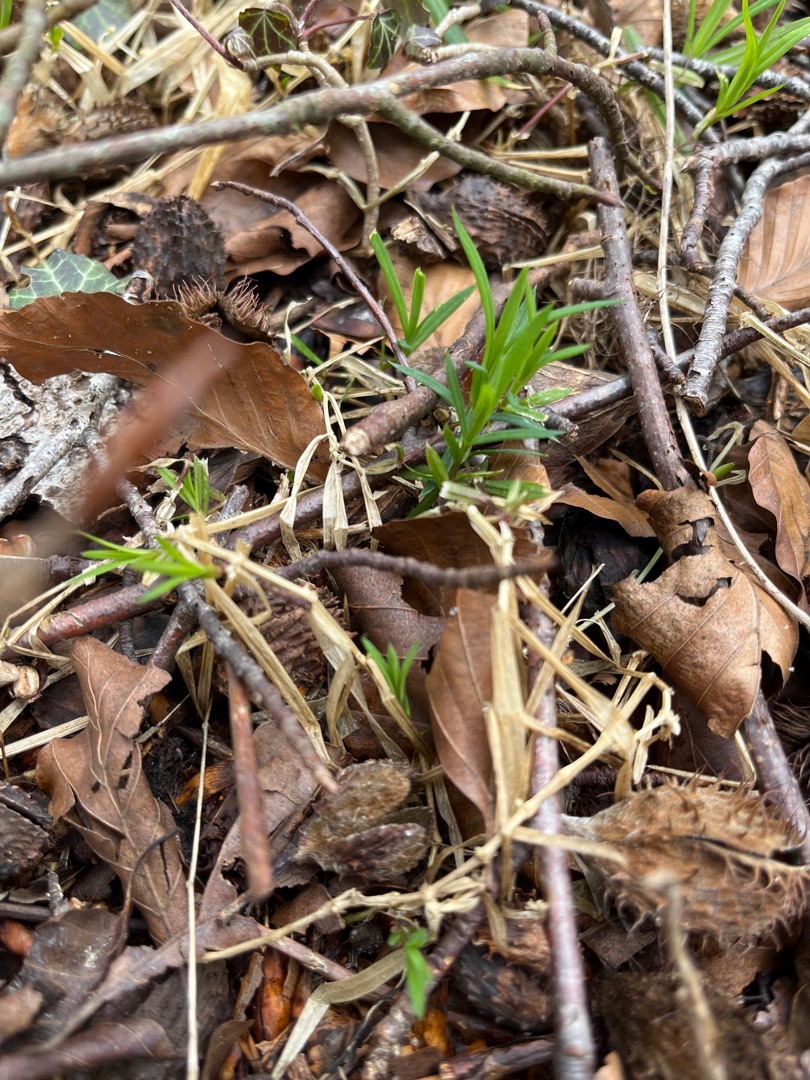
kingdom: Plantae
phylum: Tracheophyta
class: Magnoliopsida
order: Caryophyllales
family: Caryophyllaceae
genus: Rabelera
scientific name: Rabelera holostea
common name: Stor fladstjerne
